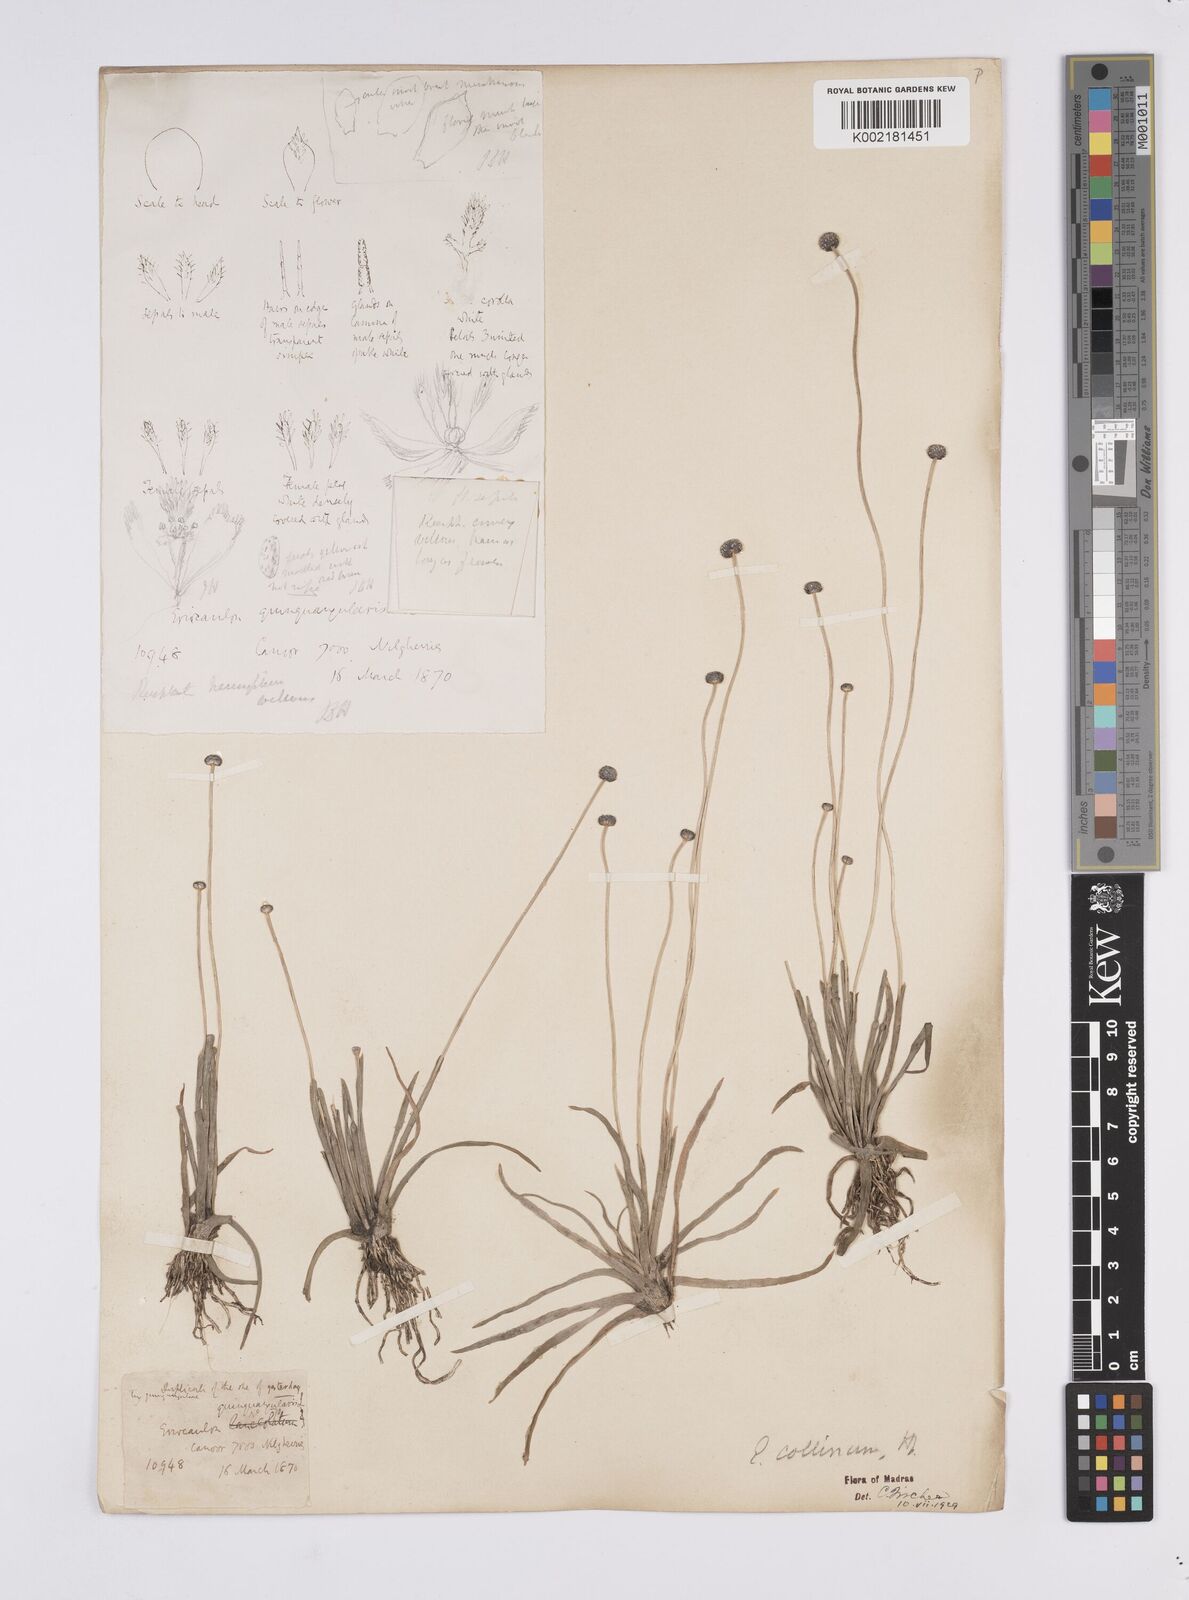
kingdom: Plantae
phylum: Tracheophyta
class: Liliopsida
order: Poales
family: Eriocaulaceae
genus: Eriocaulon
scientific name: Eriocaulon odoratum
